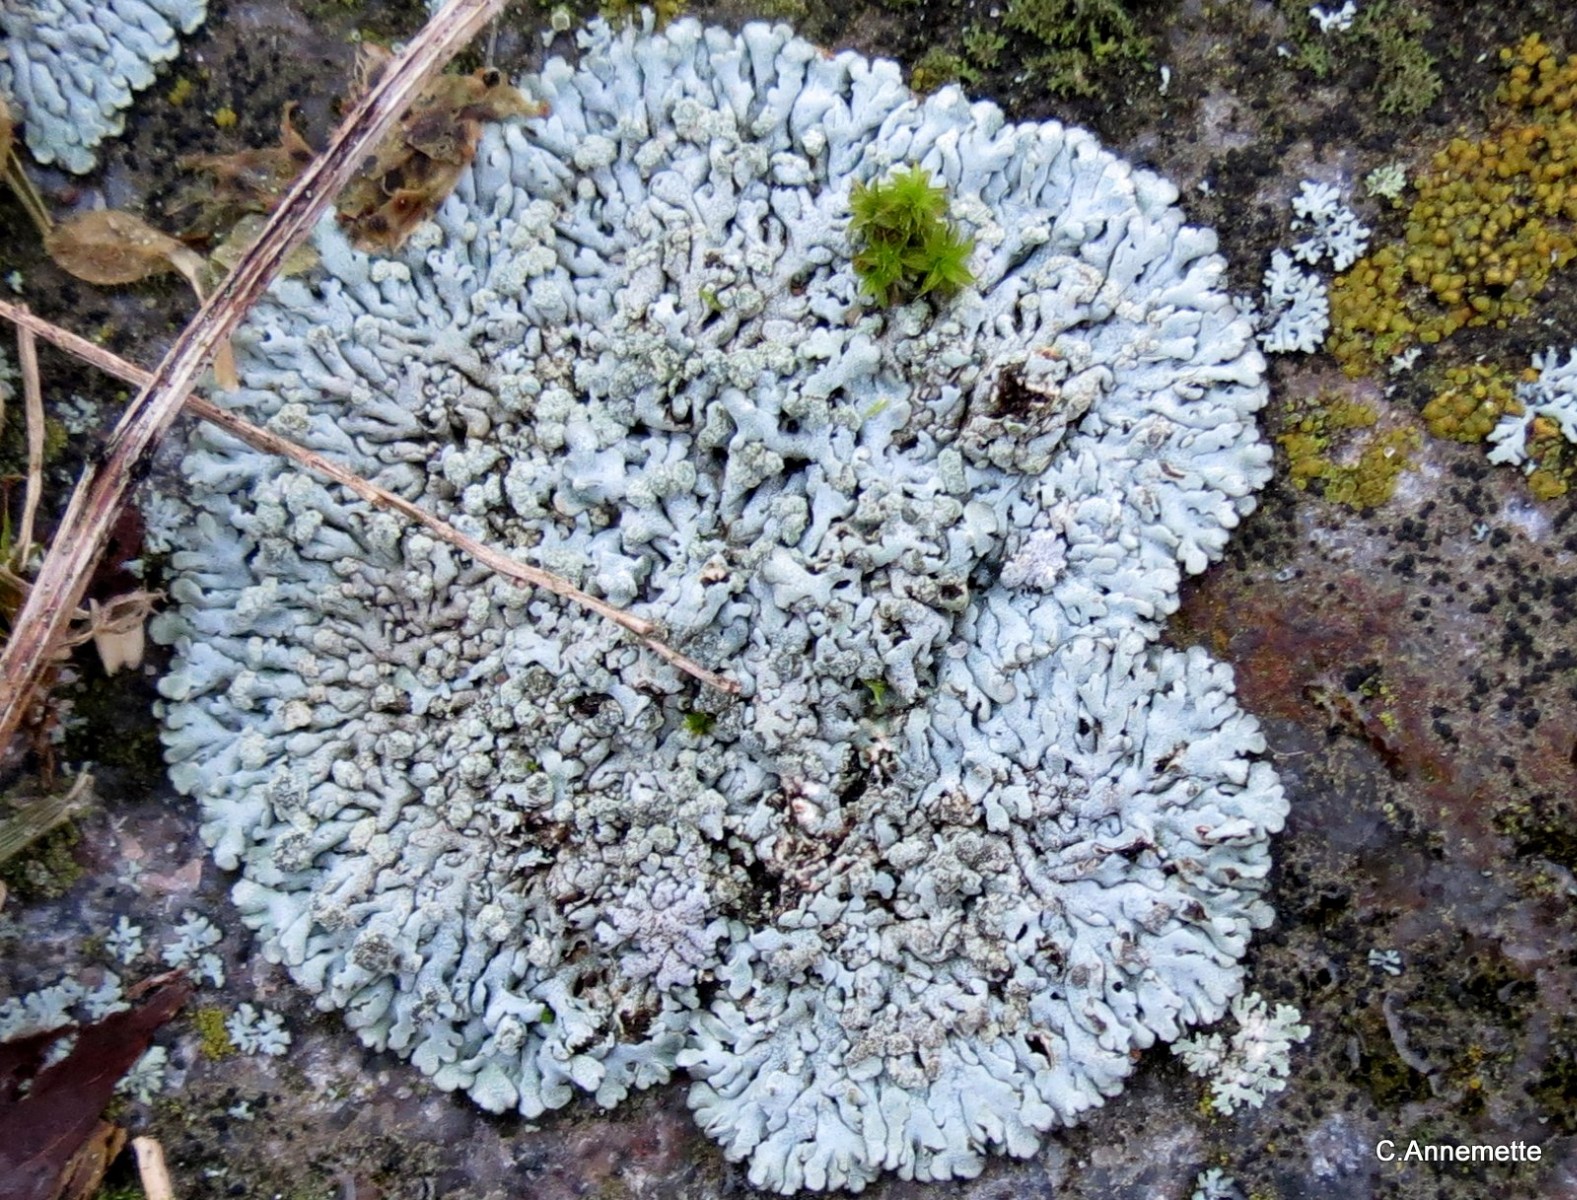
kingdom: Fungi
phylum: Ascomycota
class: Lecanoromycetes
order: Caliciales
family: Physciaceae
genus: Physcia
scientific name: Physcia caesia
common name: blågrå rosetlav
